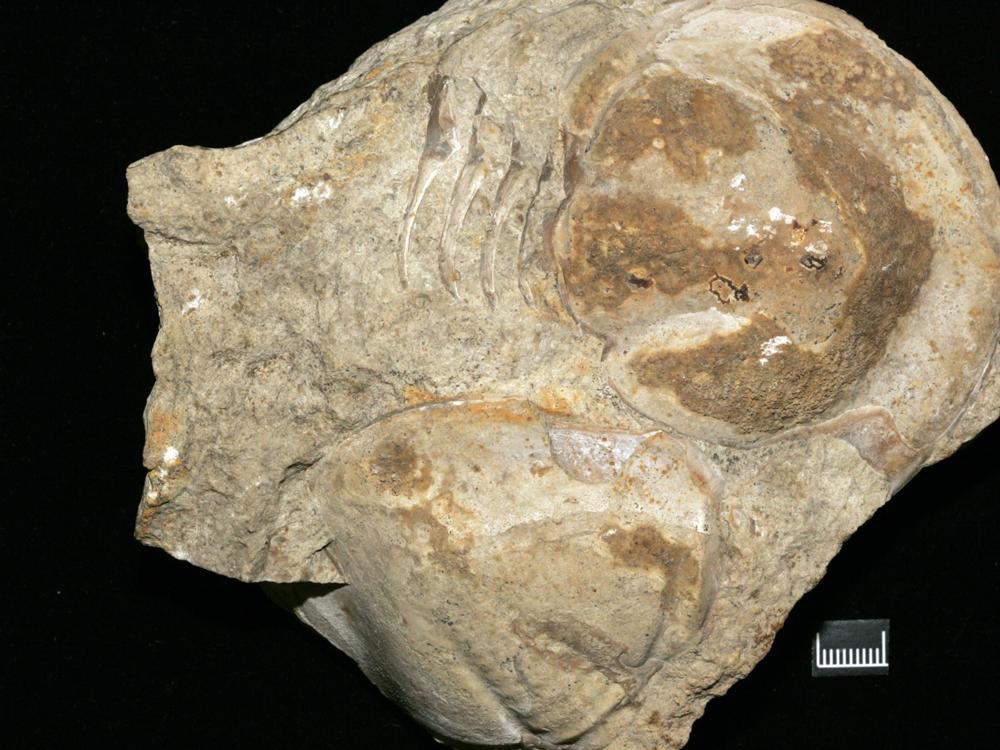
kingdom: Animalia
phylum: Arthropoda
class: Trilobita
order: Asaphida
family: Asaphidae
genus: Xenasaphus
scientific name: Xenasaphus Asaphus devexus
